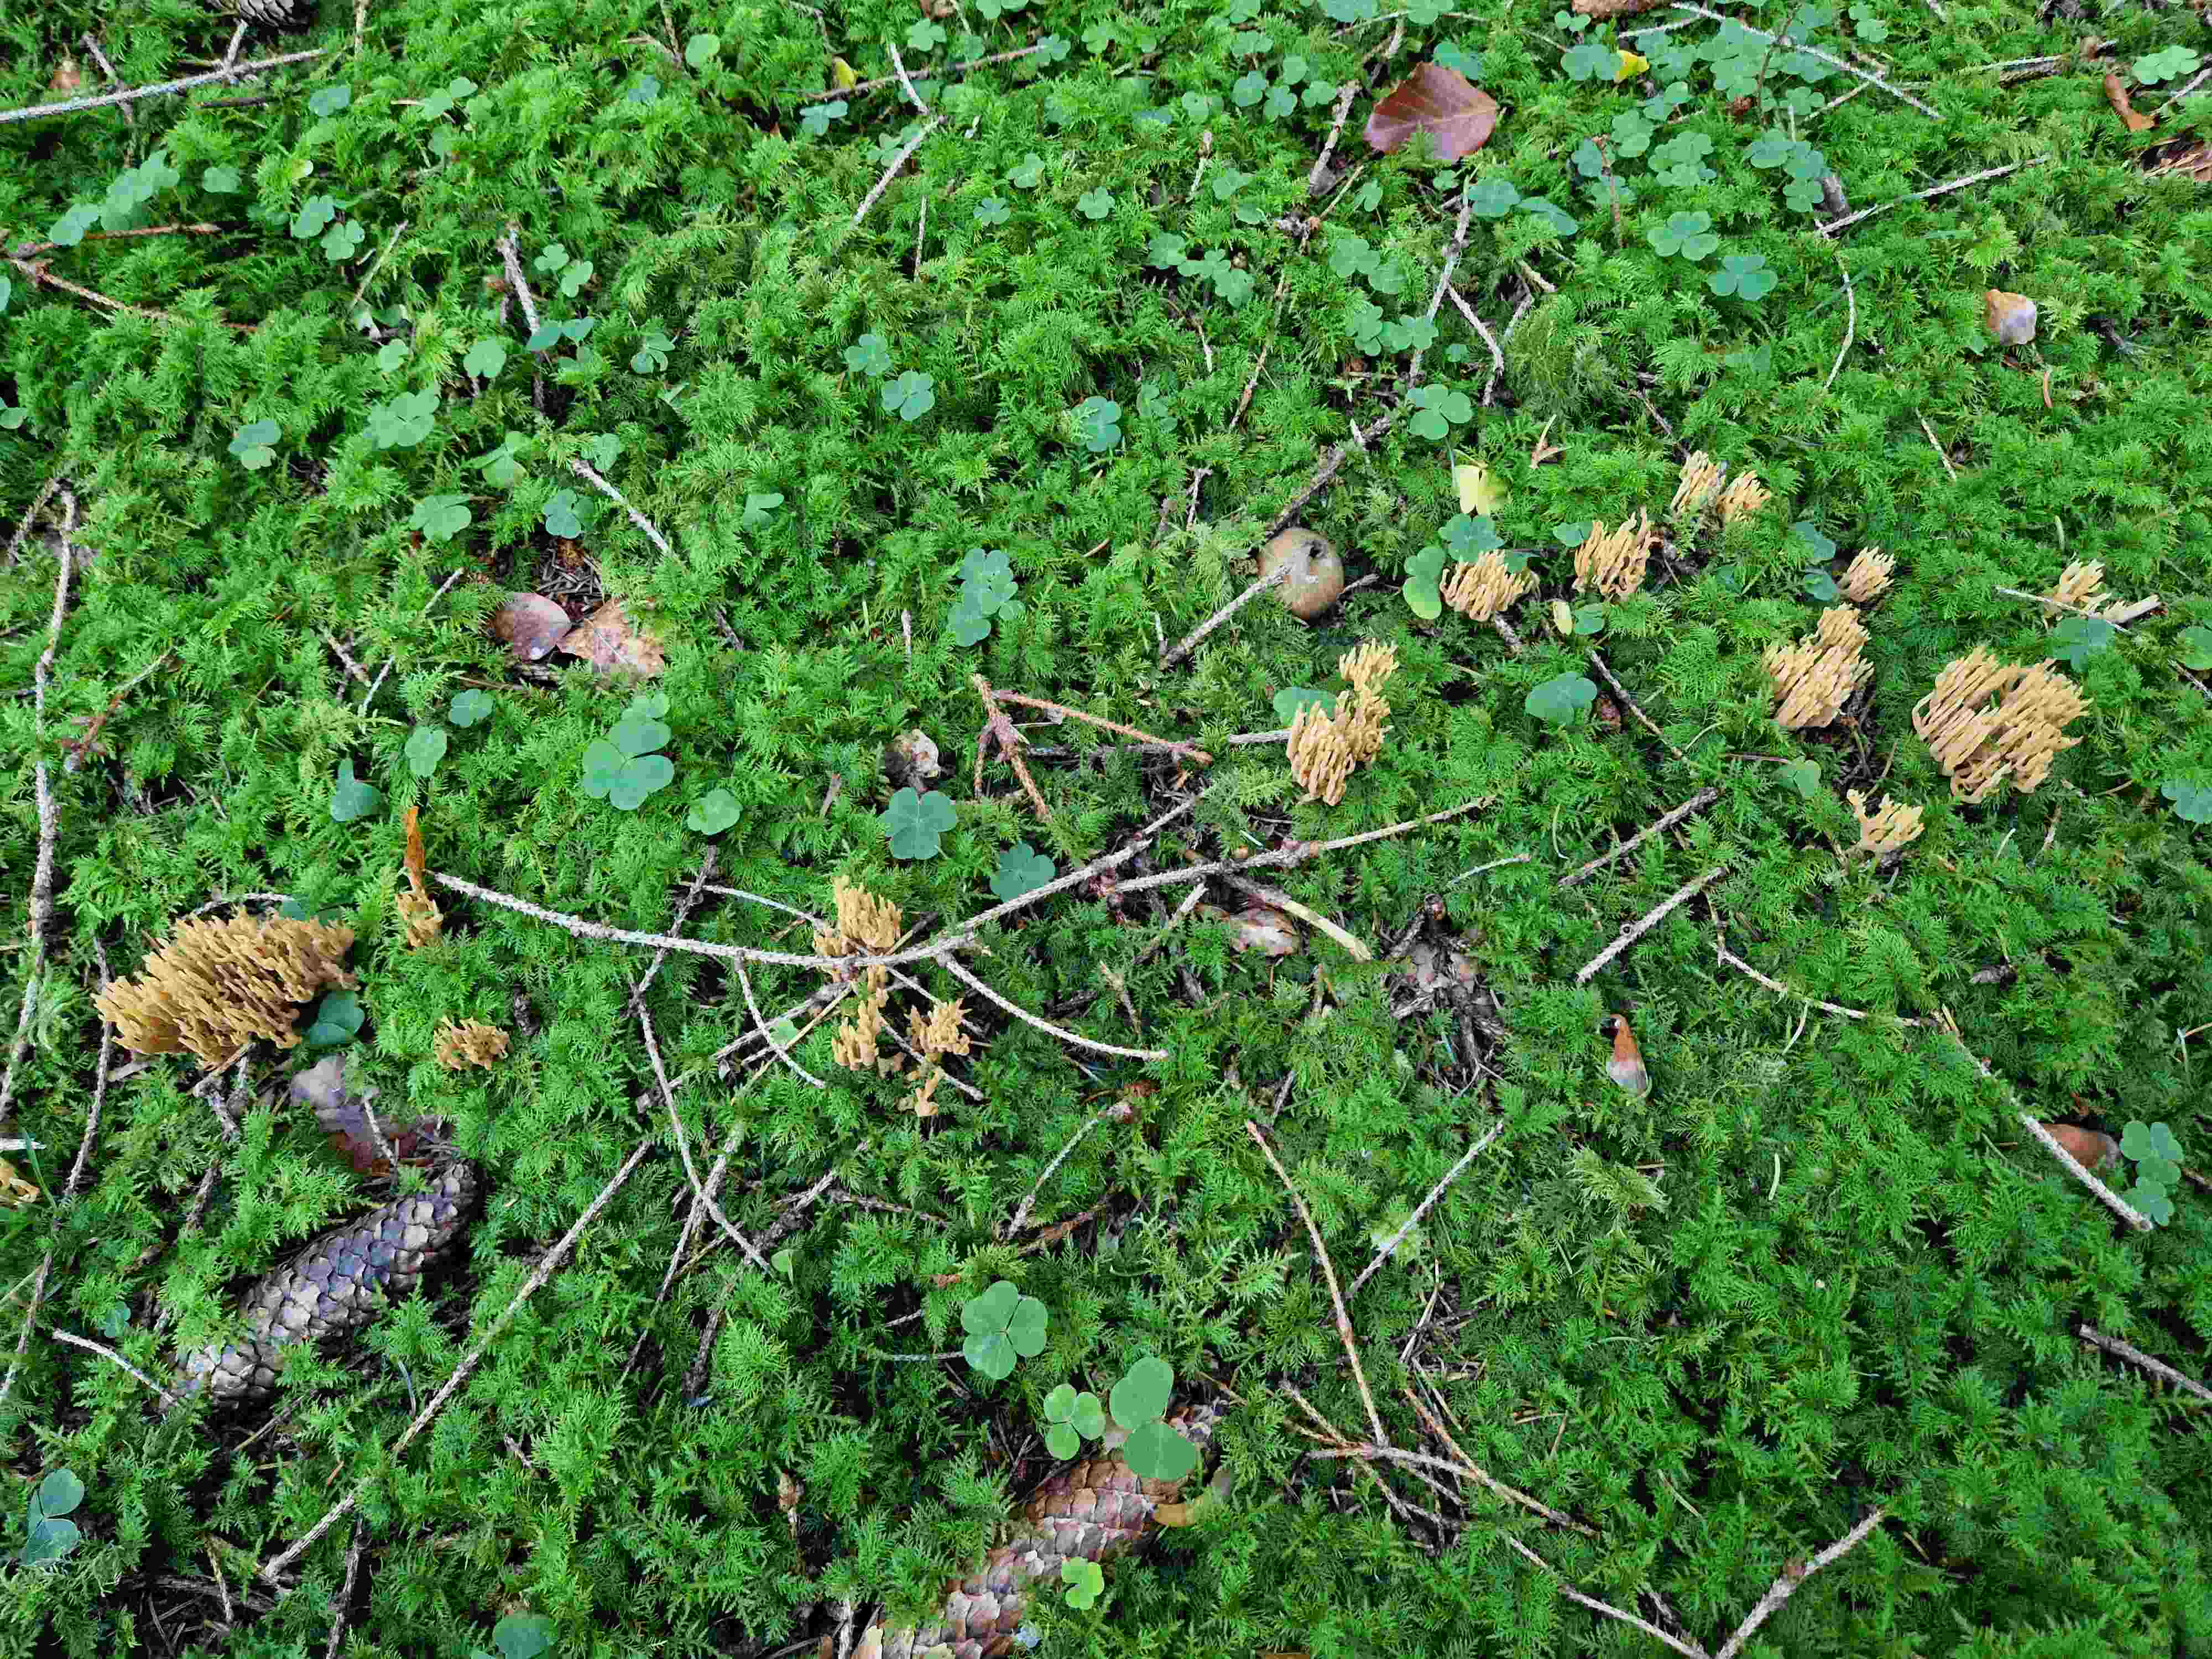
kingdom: Fungi
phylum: Basidiomycota
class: Agaricomycetes
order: Gomphales
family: Gomphaceae
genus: Phaeoclavulina
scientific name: Phaeoclavulina eumorpha
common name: gran-koralsvamp
